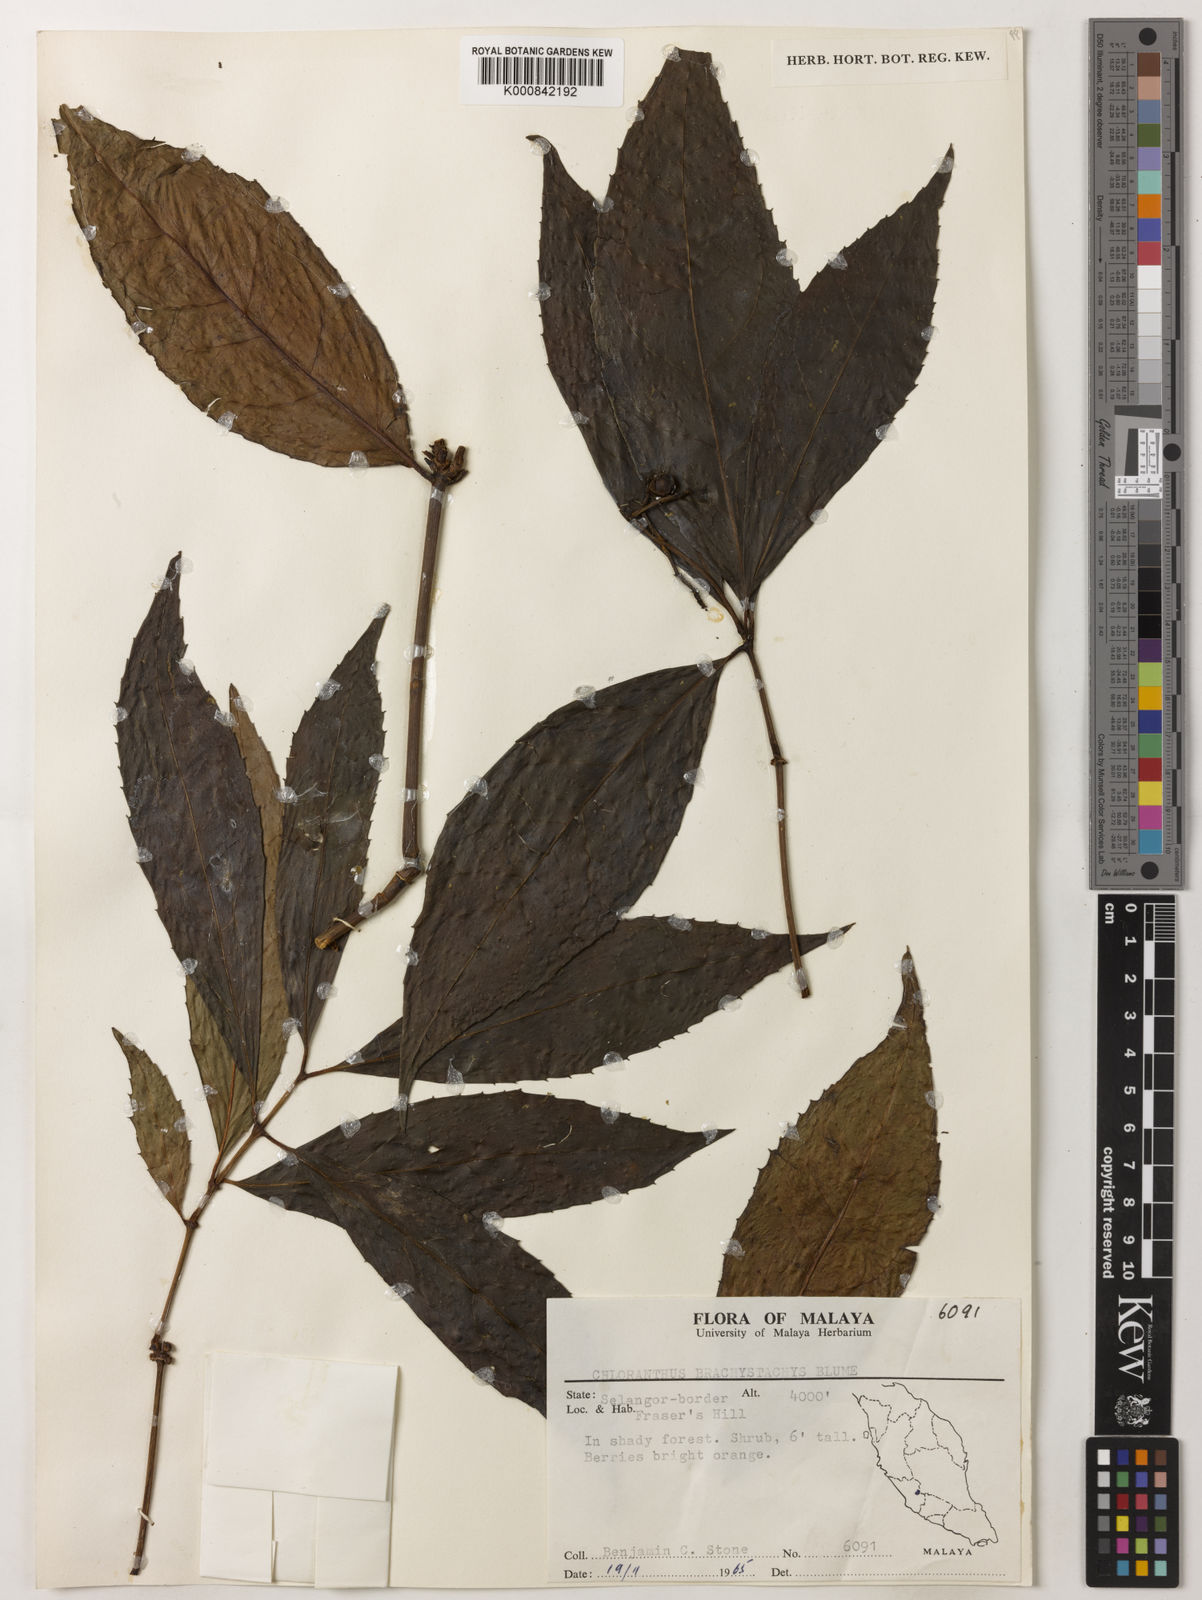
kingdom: Plantae
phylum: Tracheophyta
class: Magnoliopsida
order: Chloranthales
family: Chloranthaceae
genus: Sarcandra
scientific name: Sarcandra glabra
